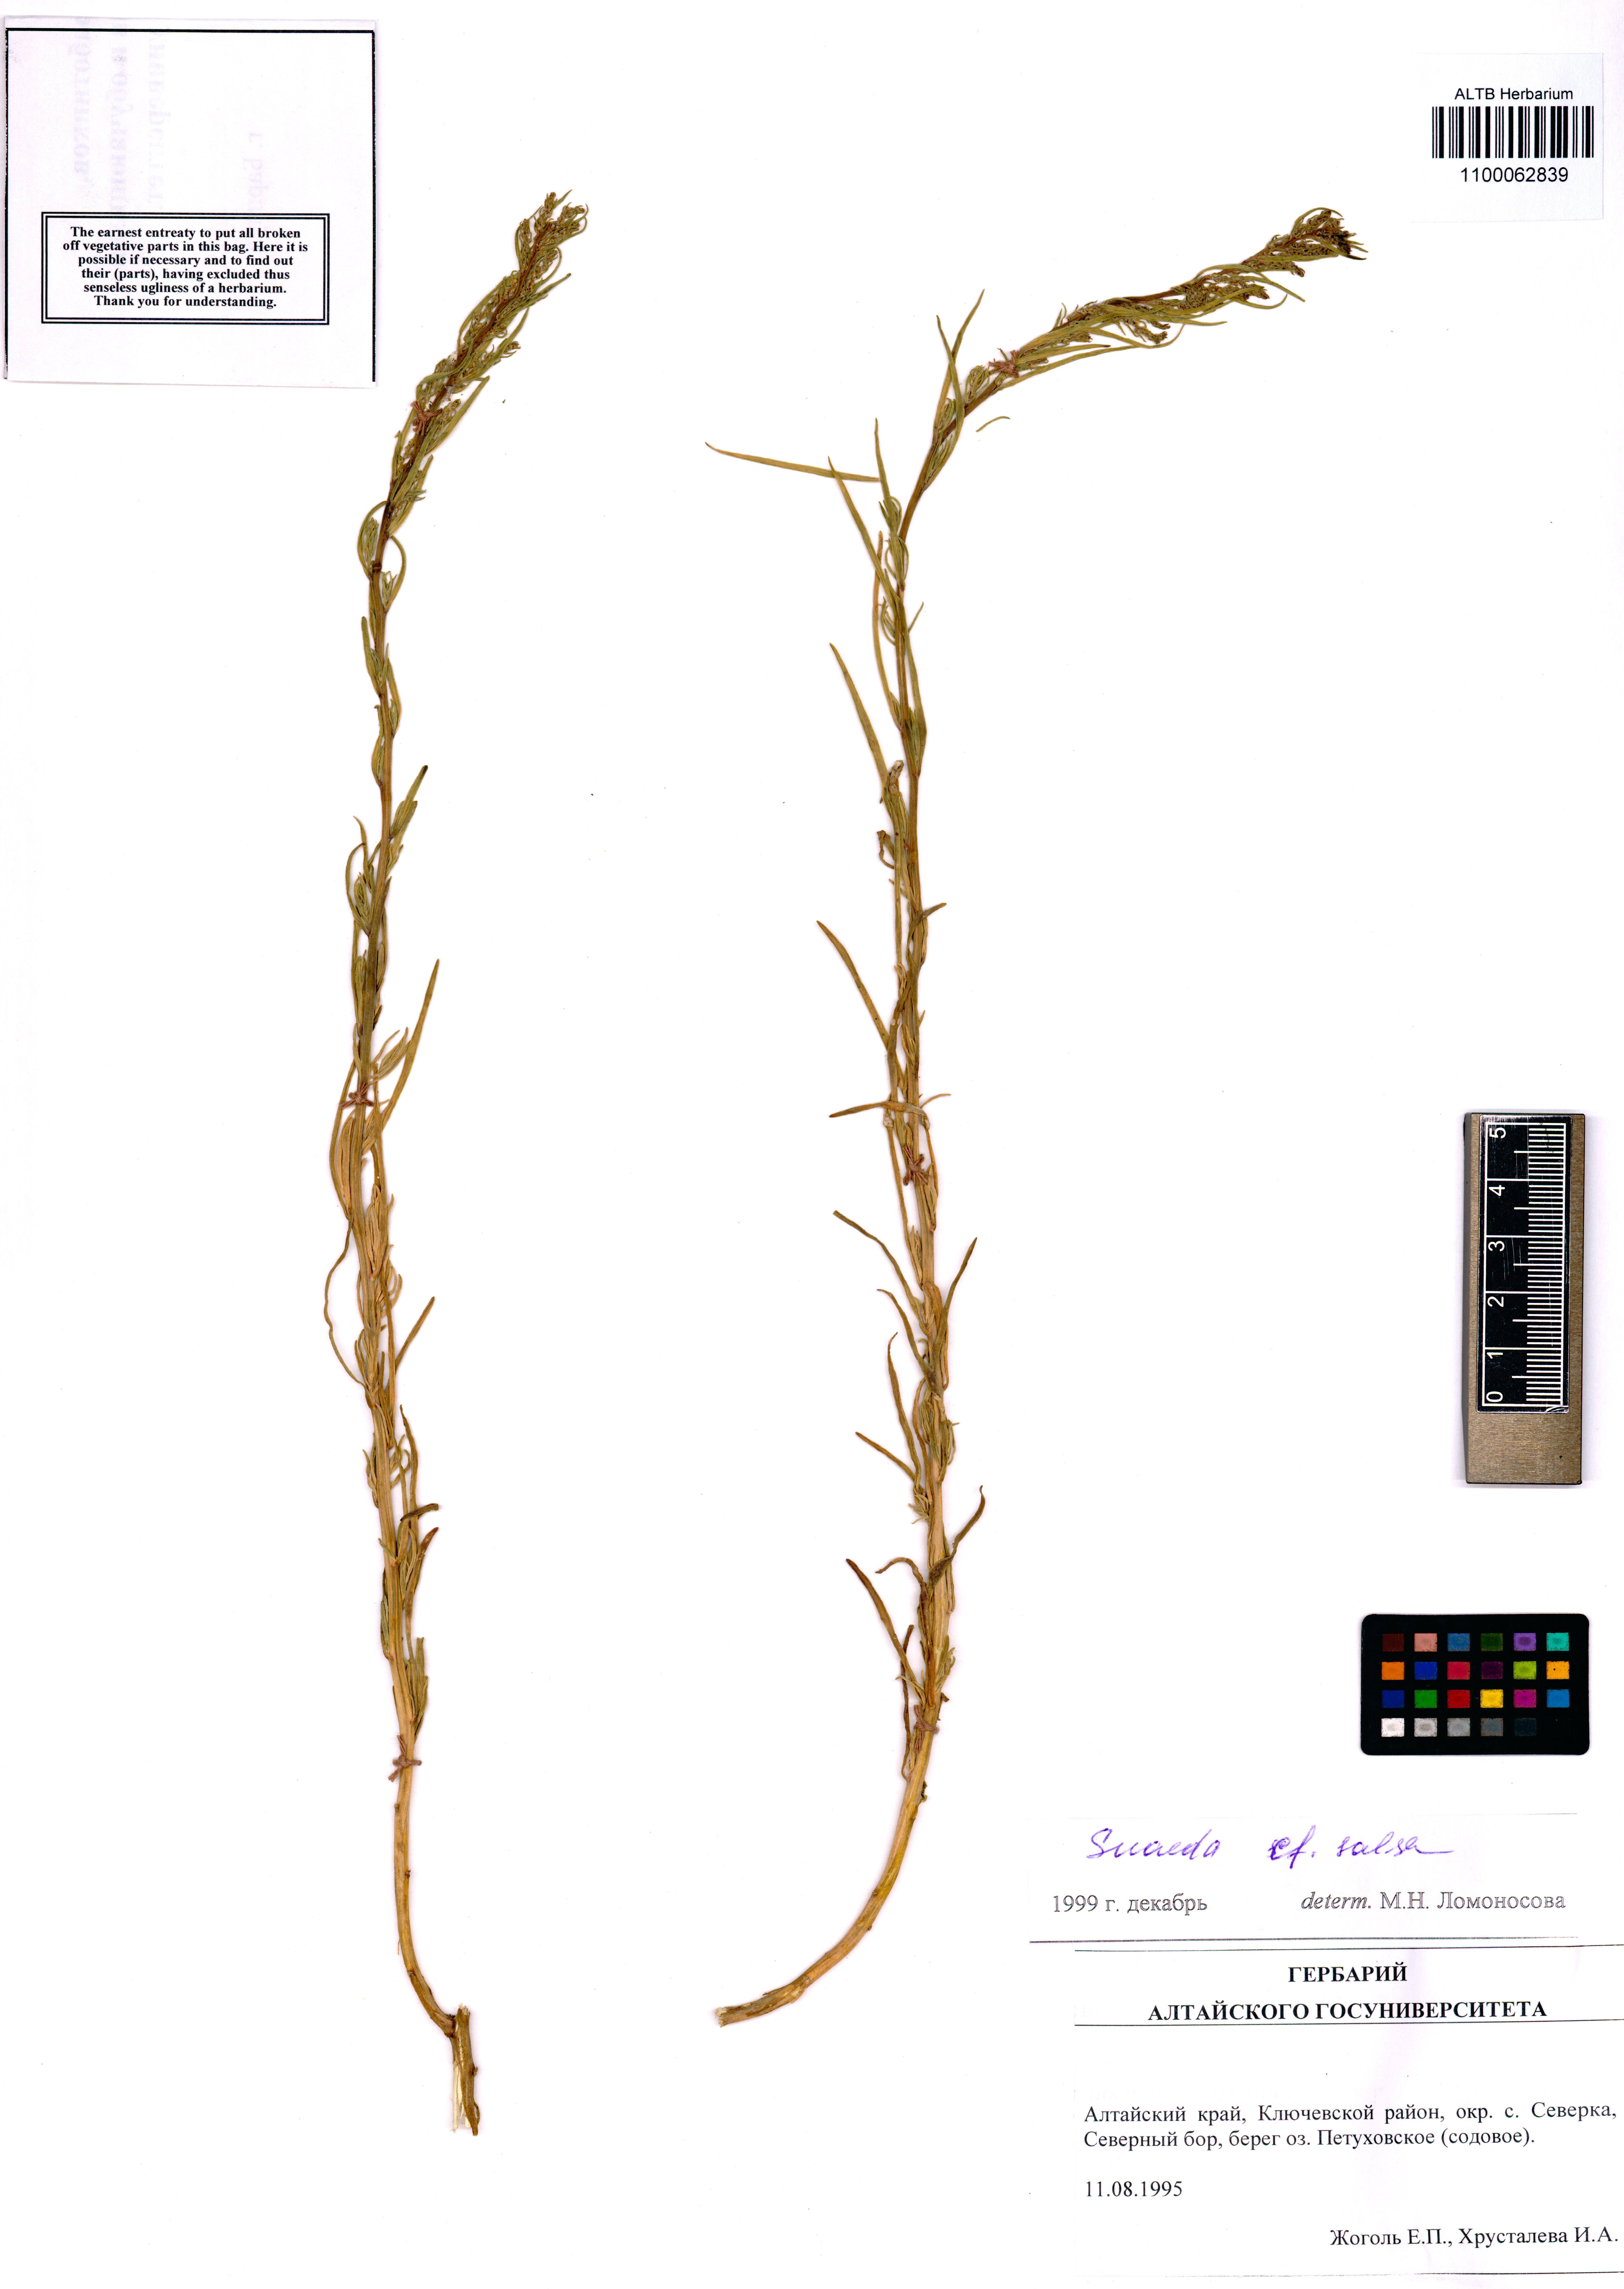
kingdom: Plantae
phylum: Tracheophyta
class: Magnoliopsida
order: Caryophyllales
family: Amaranthaceae
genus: Suaeda
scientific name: Suaeda salsa
